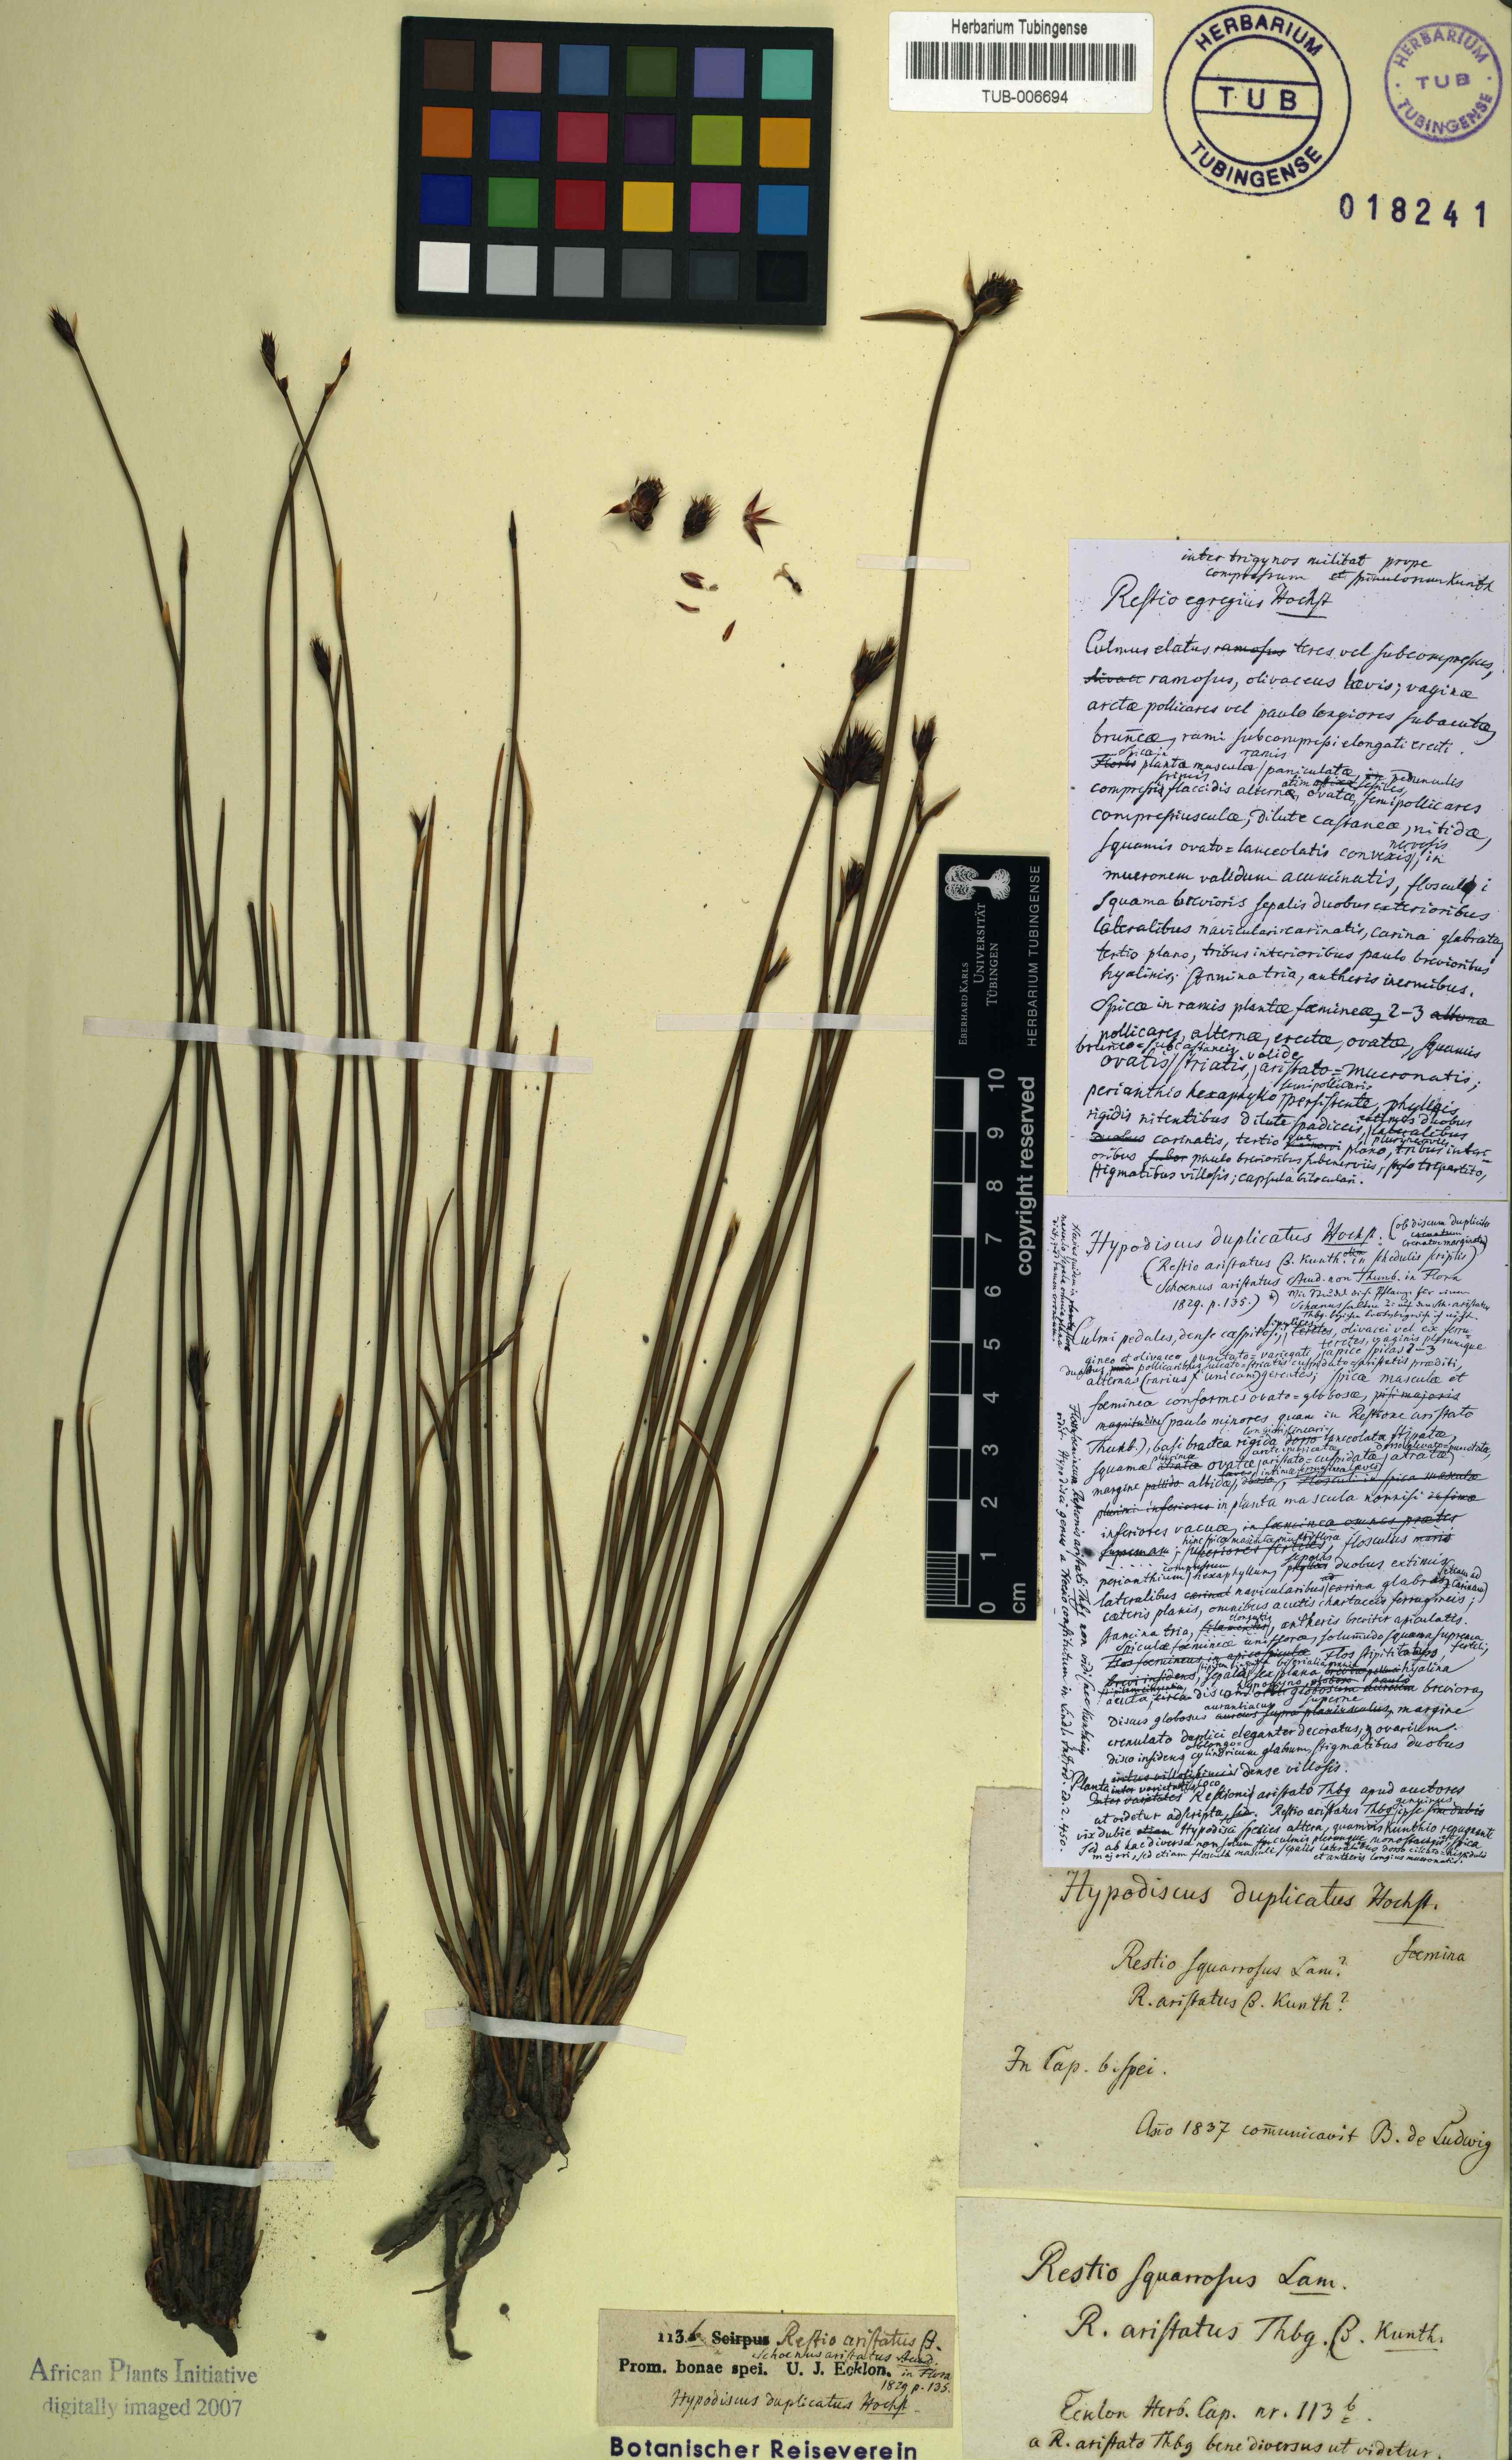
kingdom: Plantae
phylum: Tracheophyta
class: Liliopsida
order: Poales
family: Restionaceae
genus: Hypodiscus
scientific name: Hypodiscus alboaristatus
